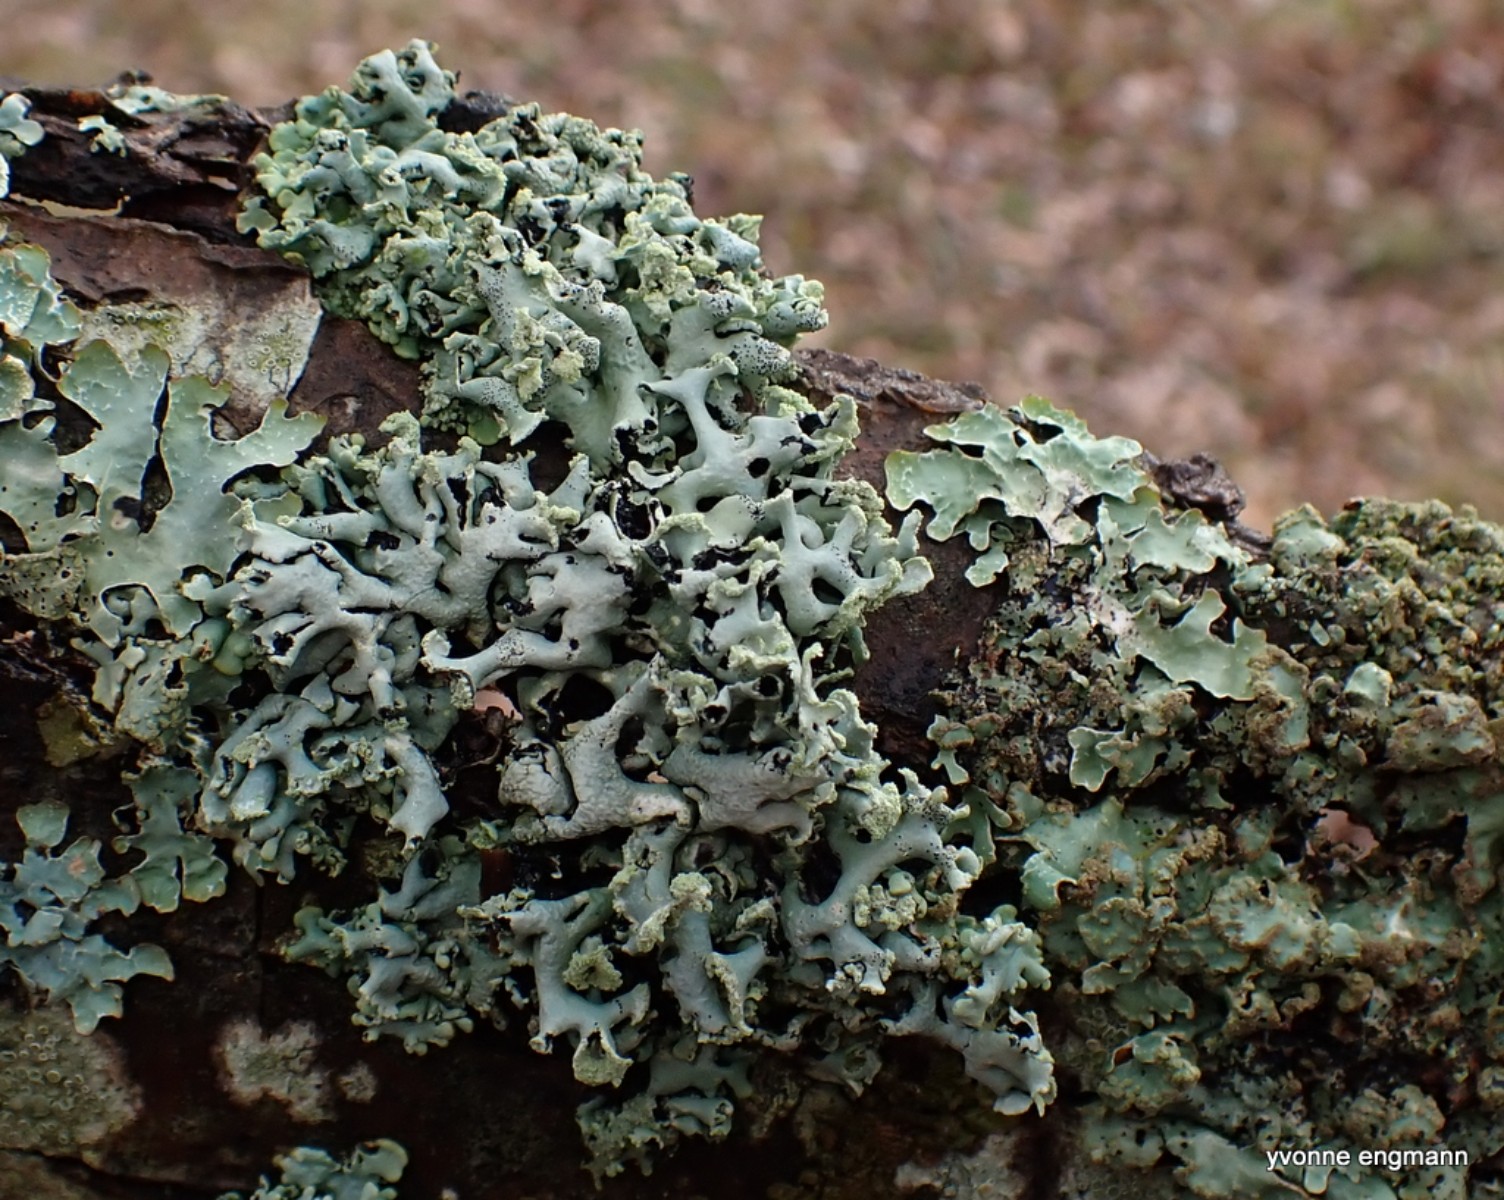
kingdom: Fungi
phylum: Ascomycota
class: Lecanoromycetes
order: Lecanorales
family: Parmeliaceae
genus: Hypogymnia
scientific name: Hypogymnia physodes
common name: almindelig kvistlav
